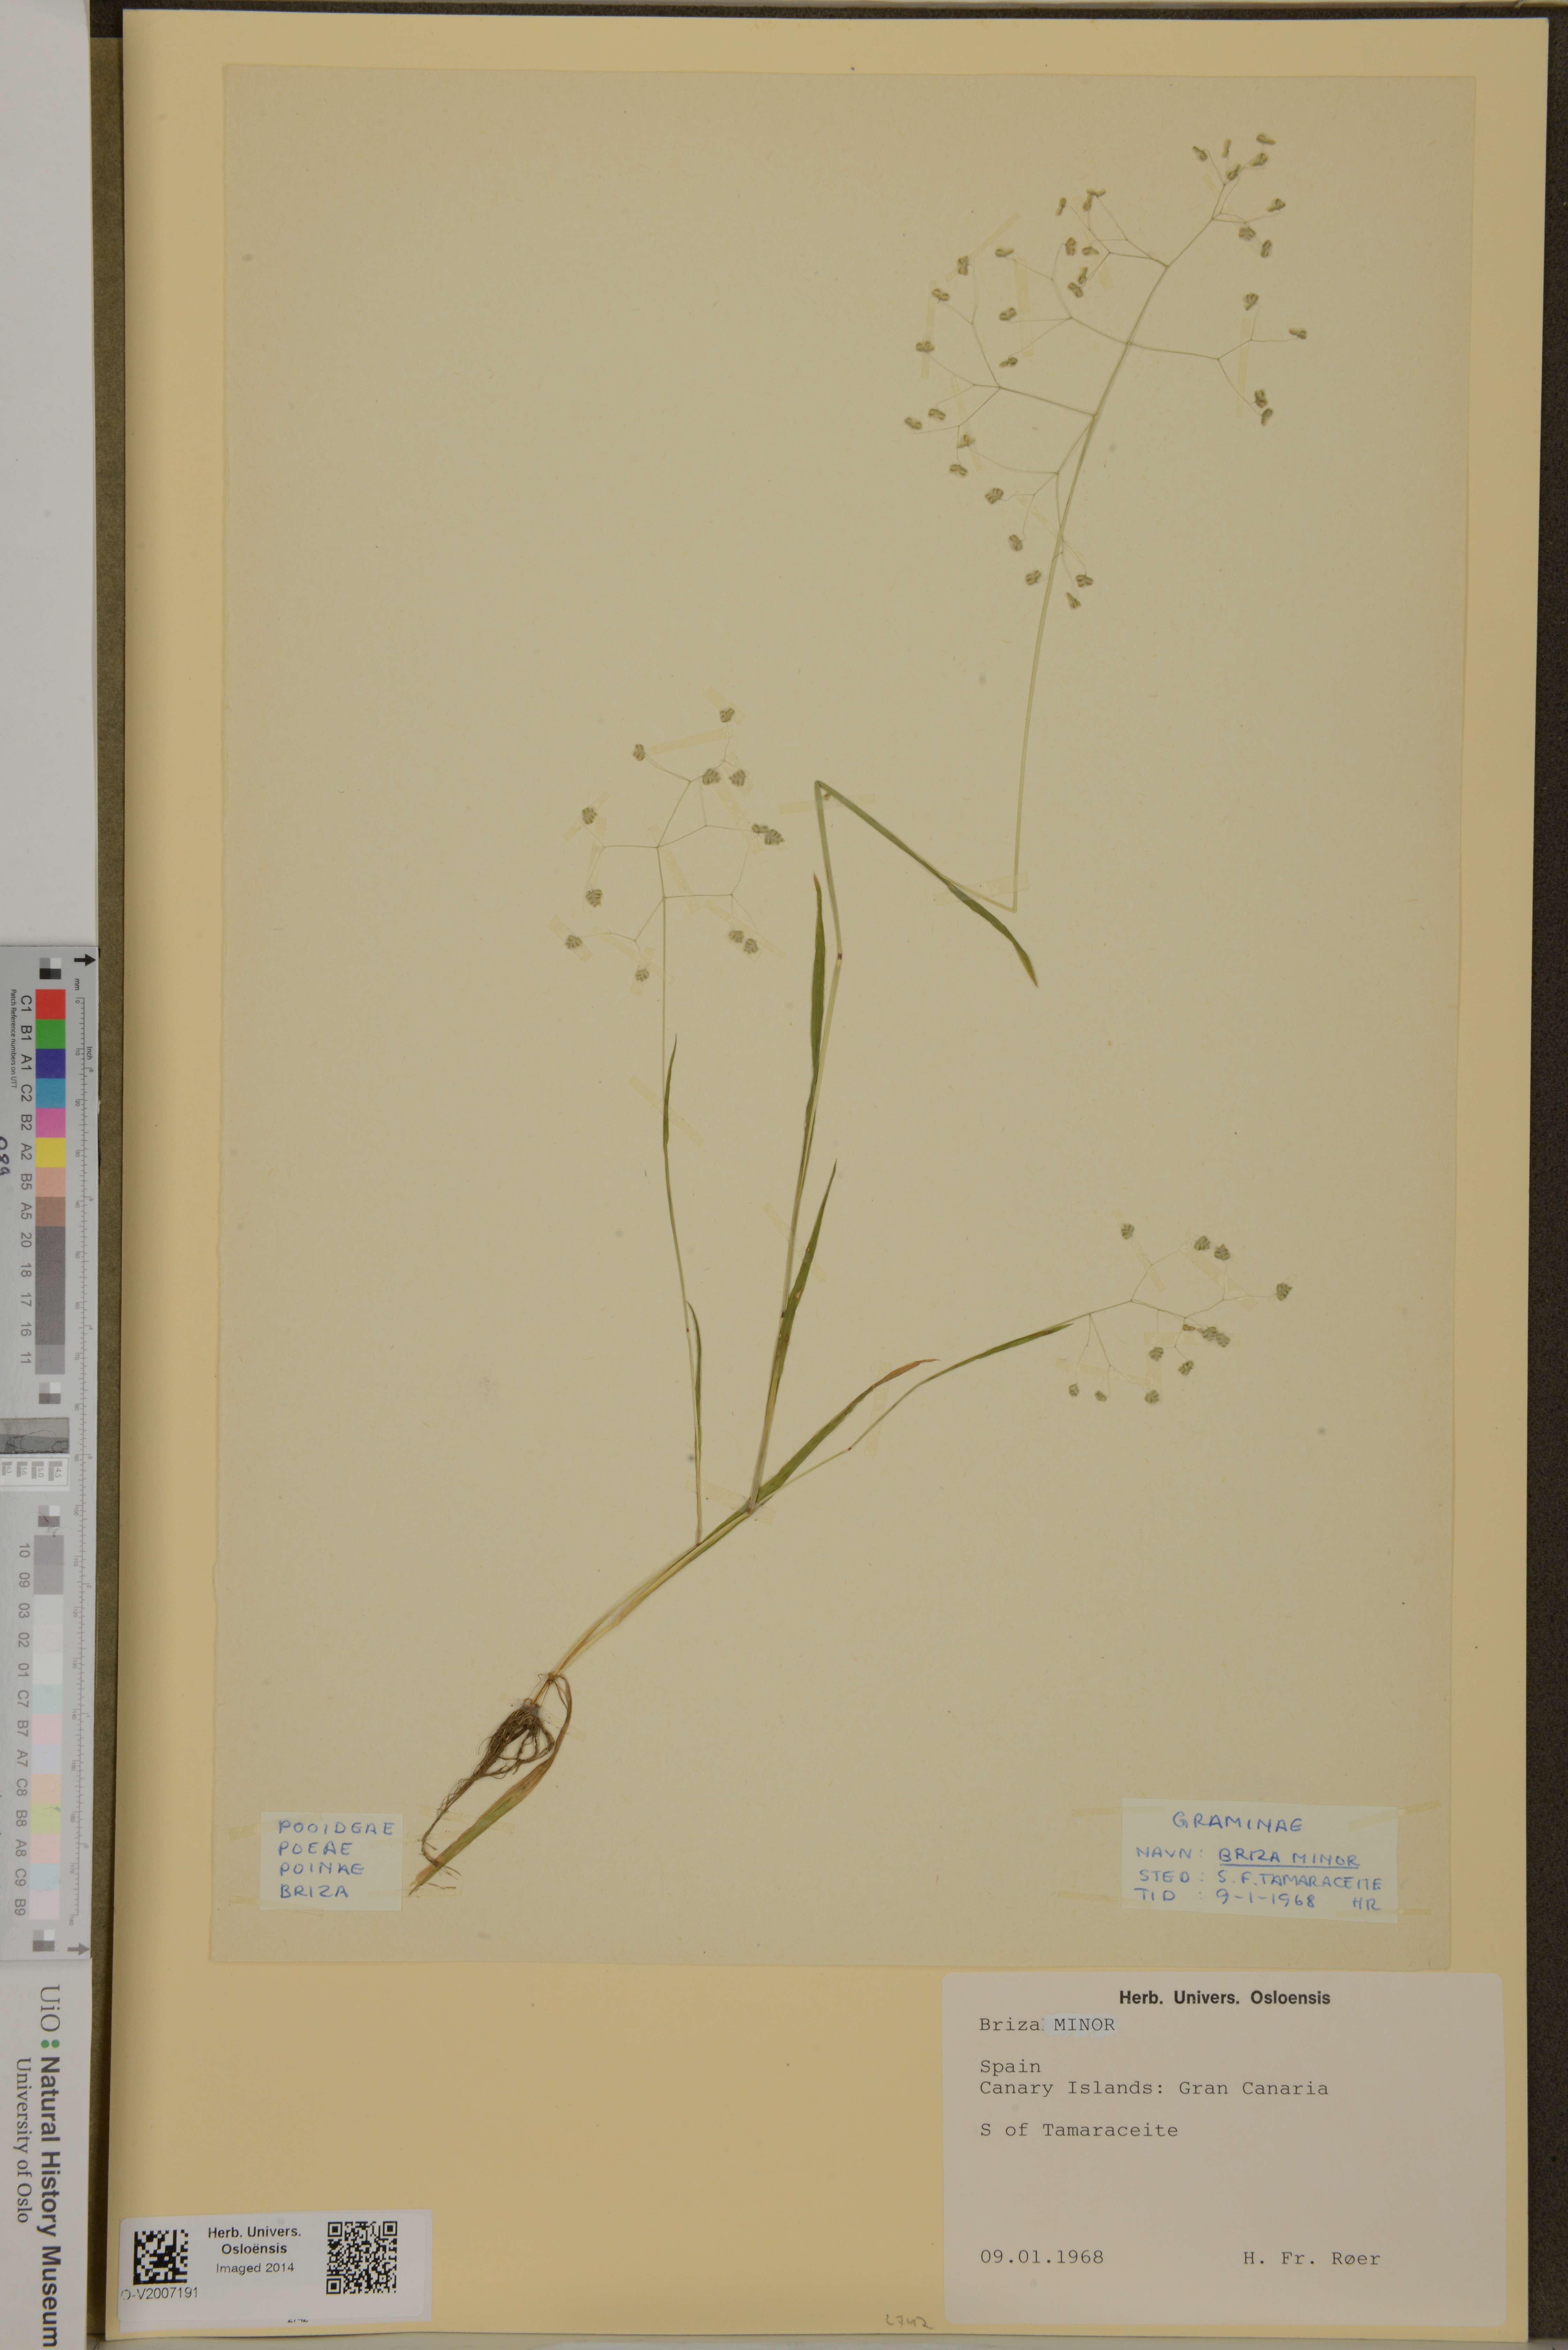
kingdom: Plantae
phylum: Tracheophyta
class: Liliopsida
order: Poales
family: Poaceae
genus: Briza
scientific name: Briza minor
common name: Lesser quaking-grass
